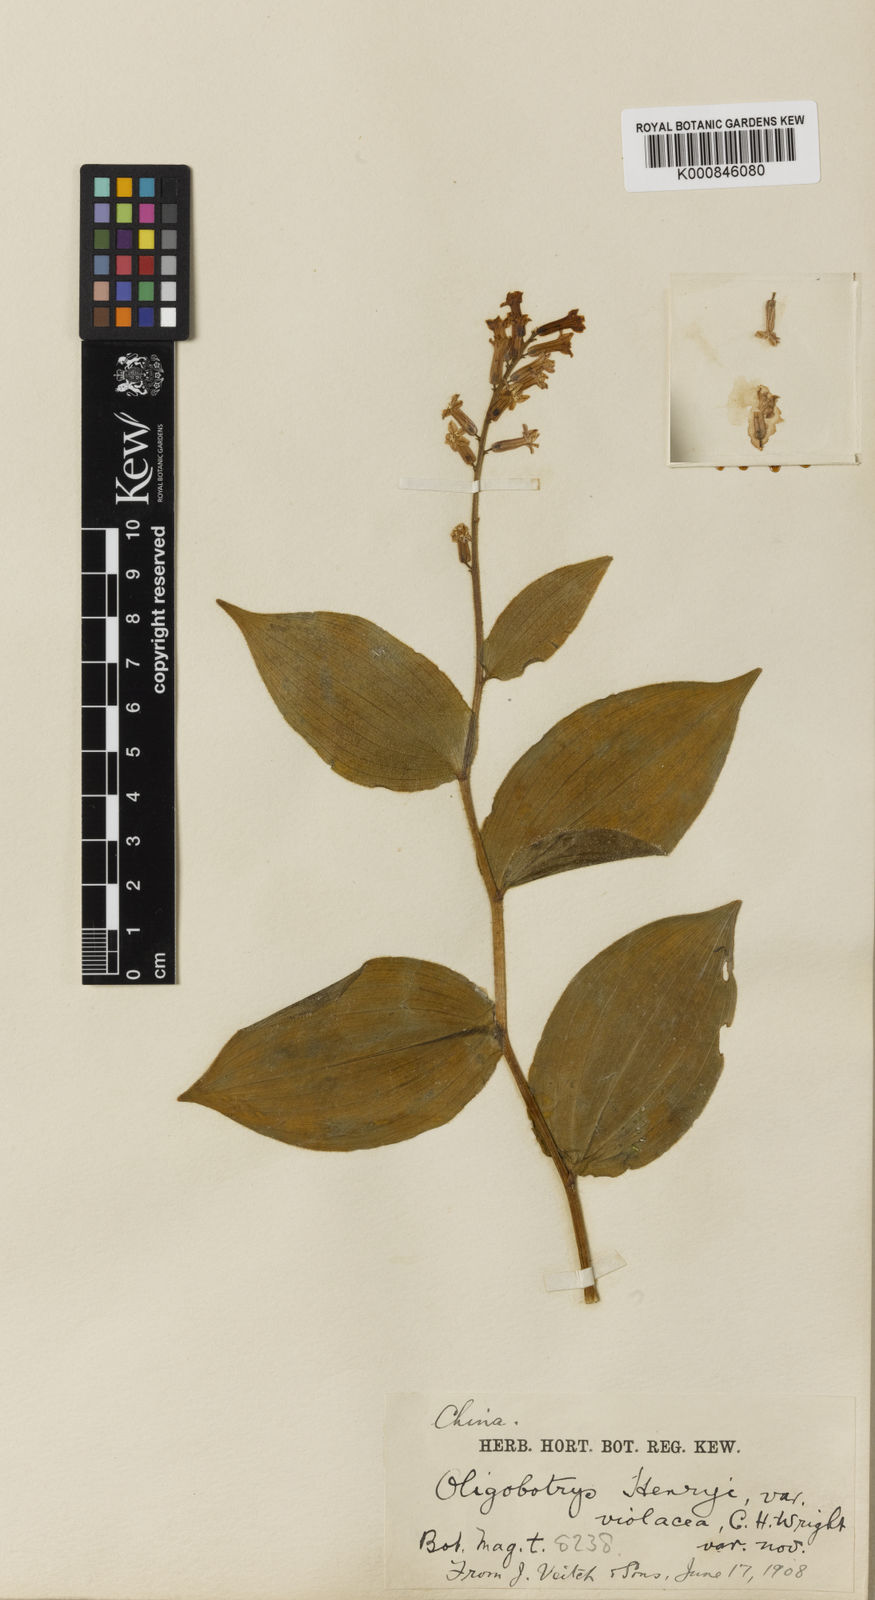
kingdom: Plantae
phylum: Tracheophyta
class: Liliopsida
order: Asparagales
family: Asparagaceae
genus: Maianthemum
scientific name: Maianthemum henryi
